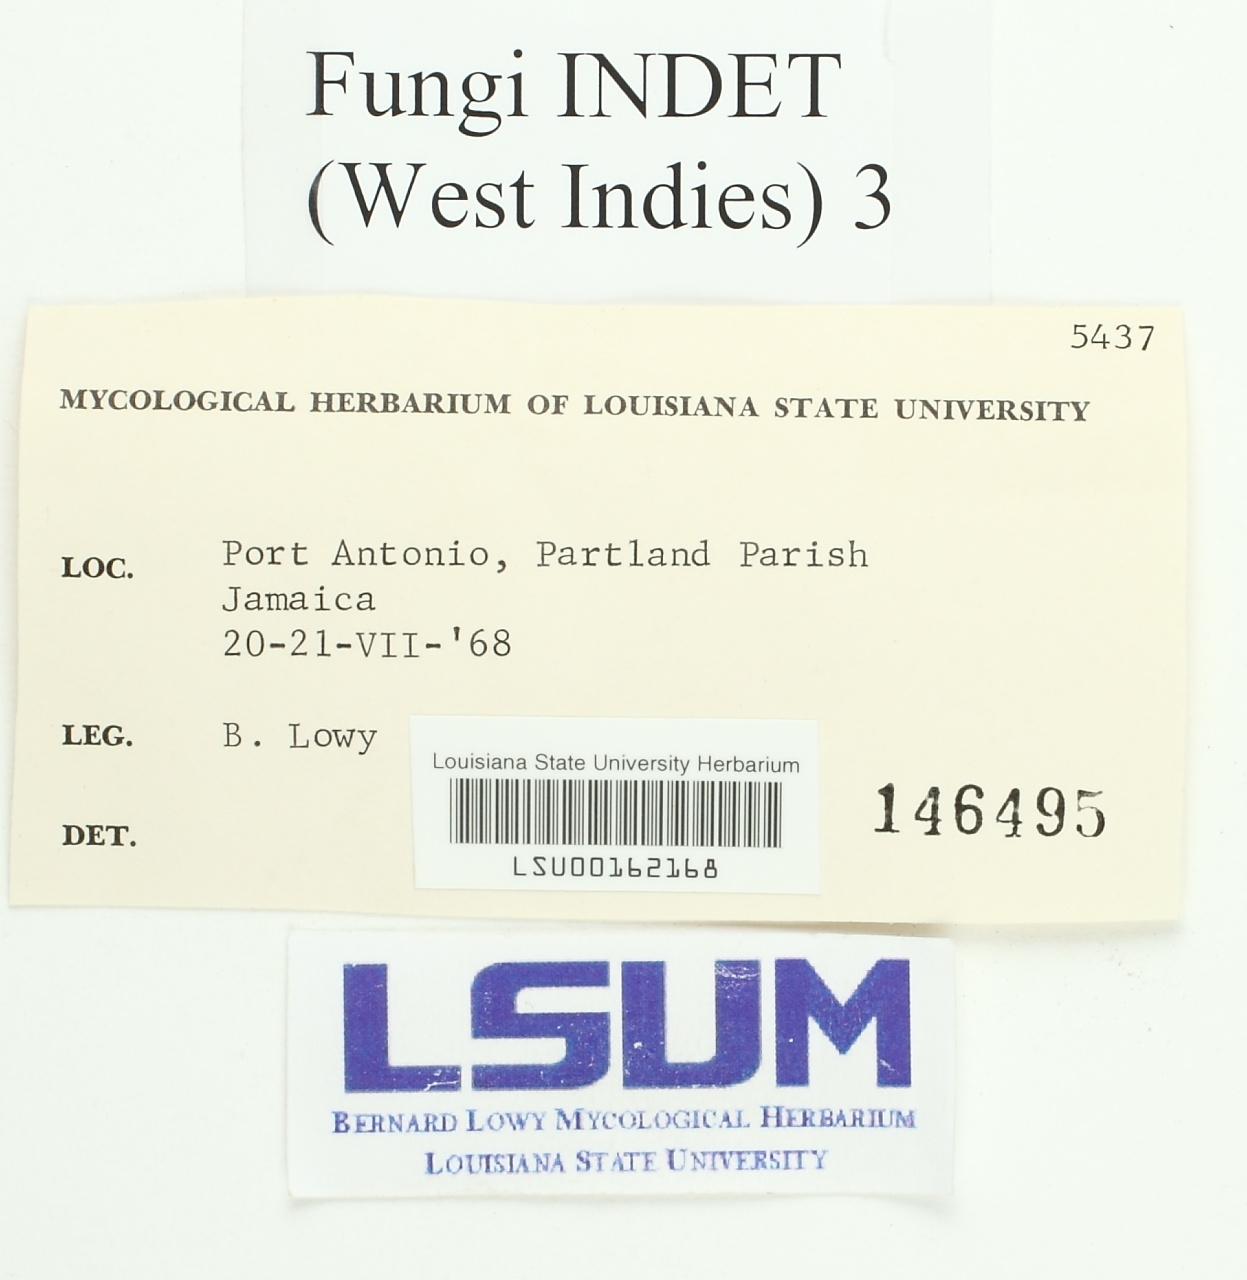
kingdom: Fungi
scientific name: Fungi
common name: Fungi
